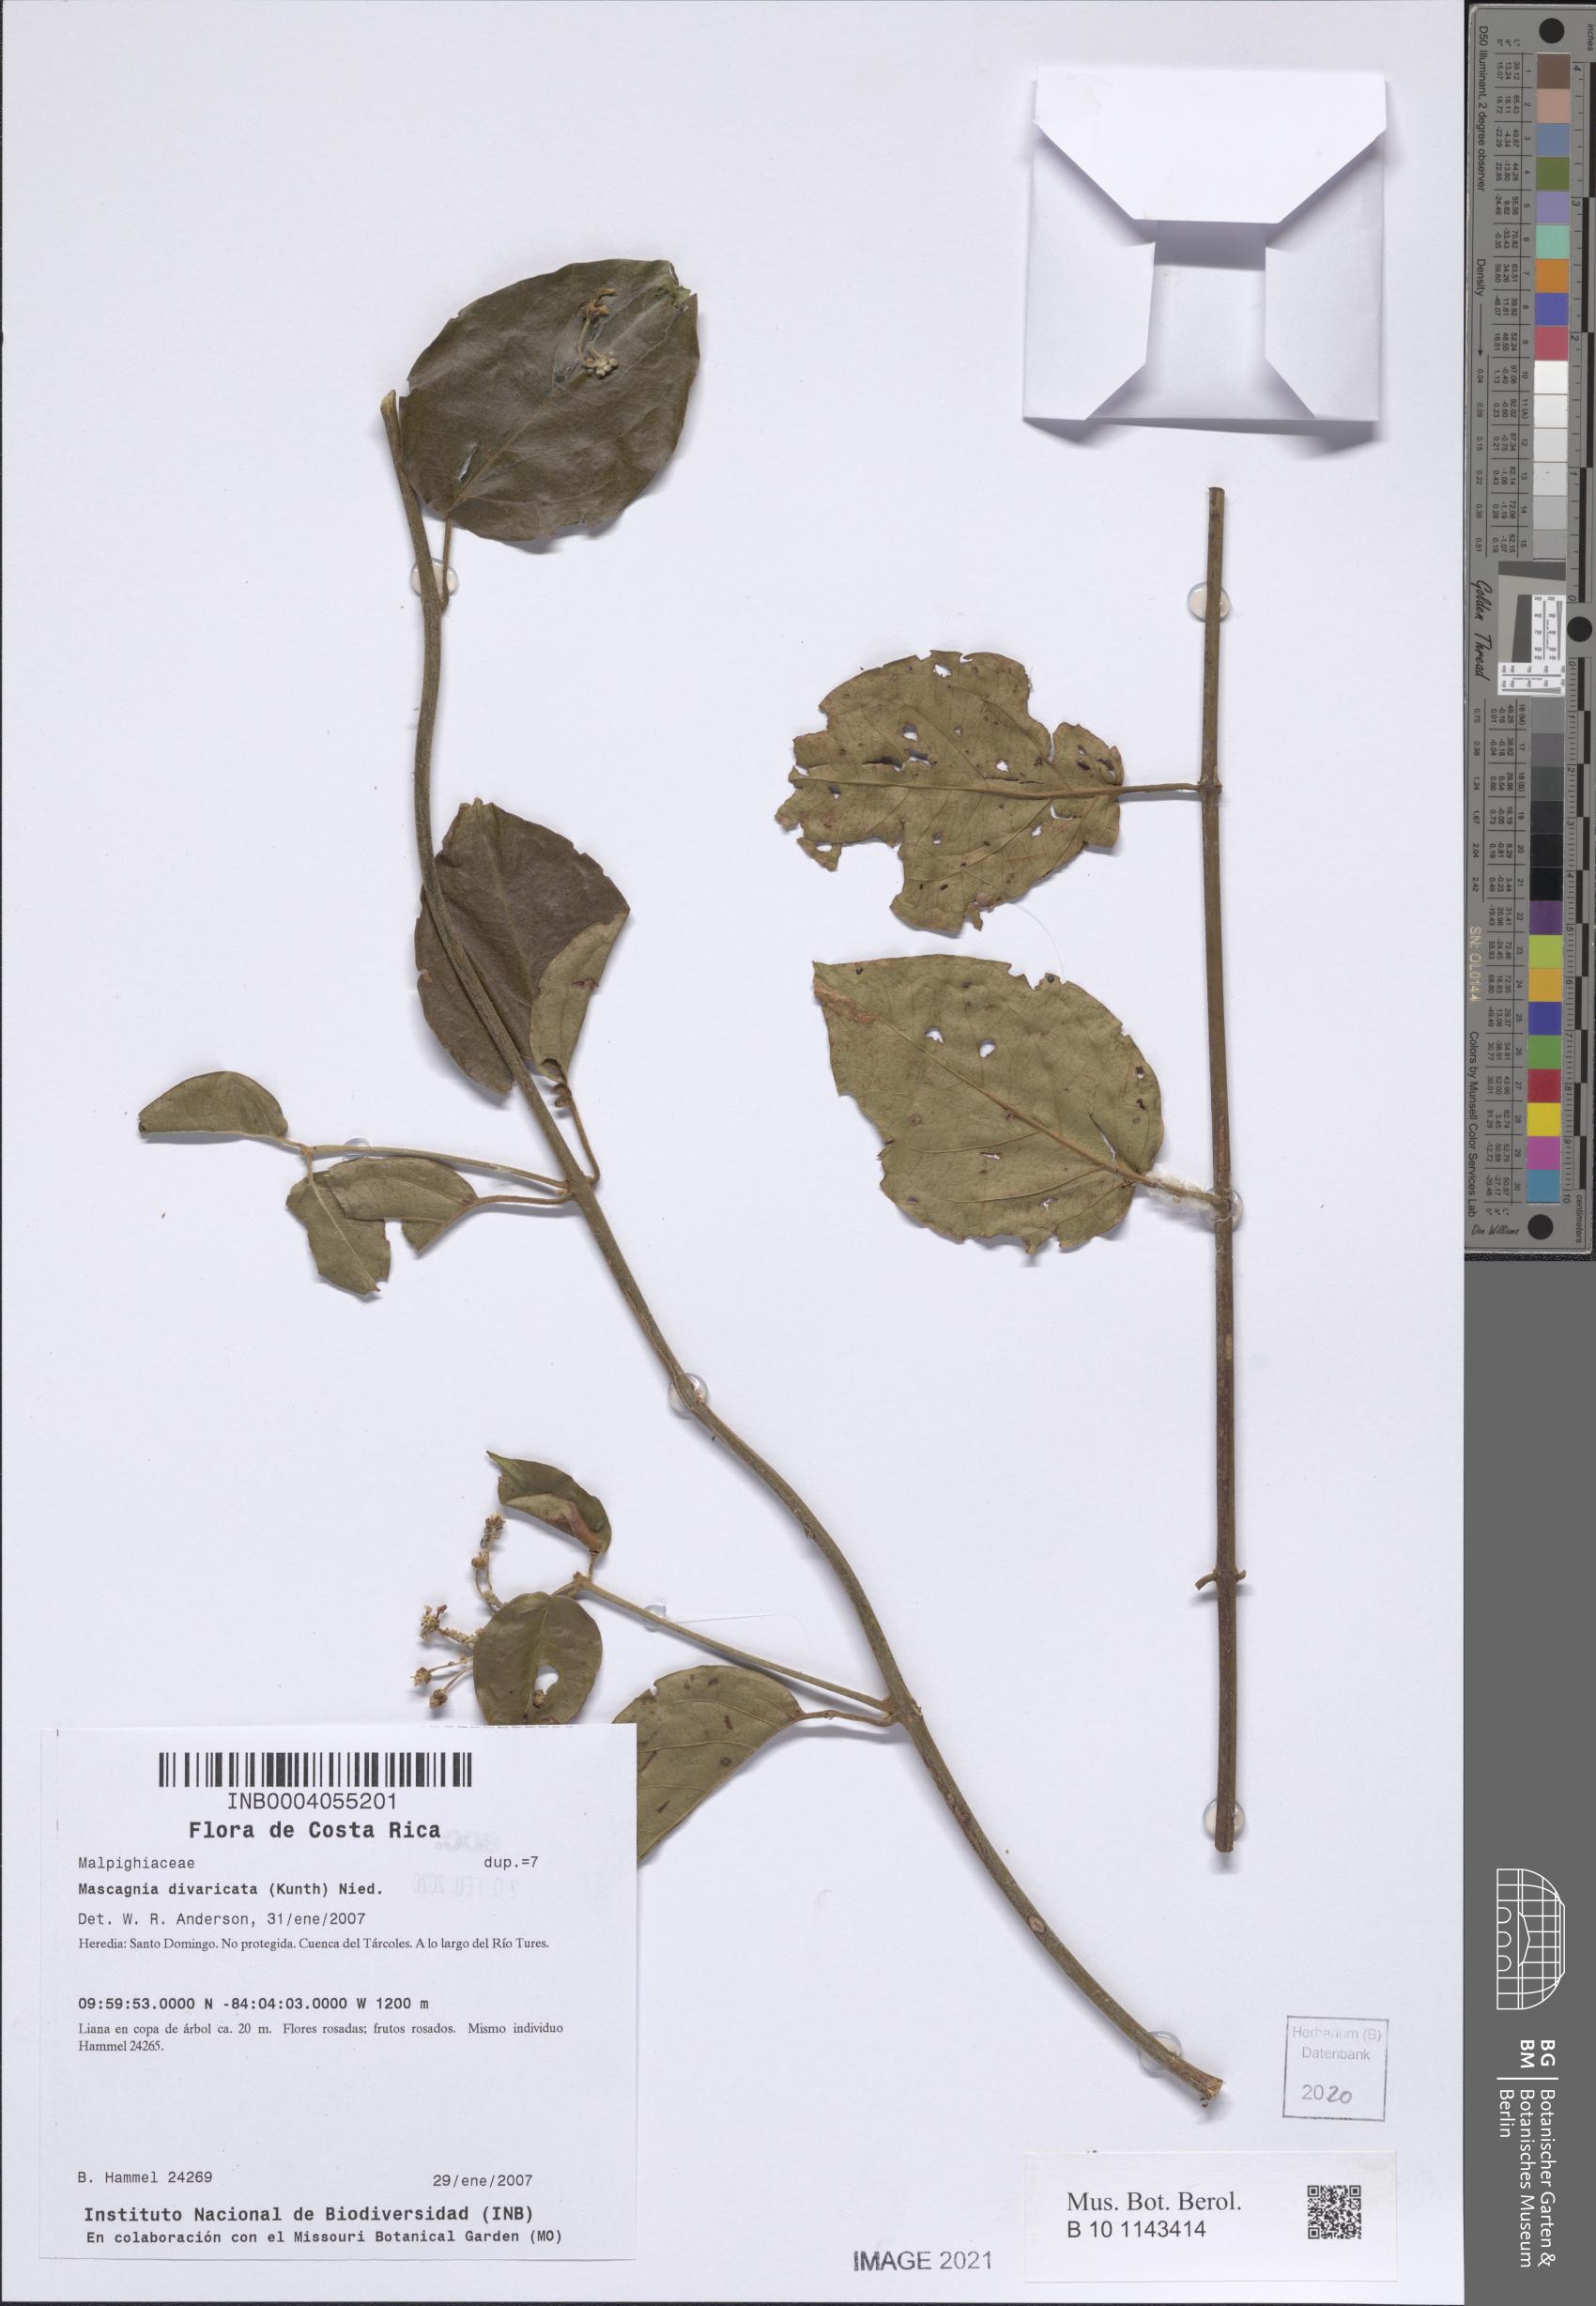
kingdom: Plantae
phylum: Tracheophyta
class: Magnoliopsida
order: Malpighiales
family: Malpighiaceae
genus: Mascagnia
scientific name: Mascagnia divaricata
